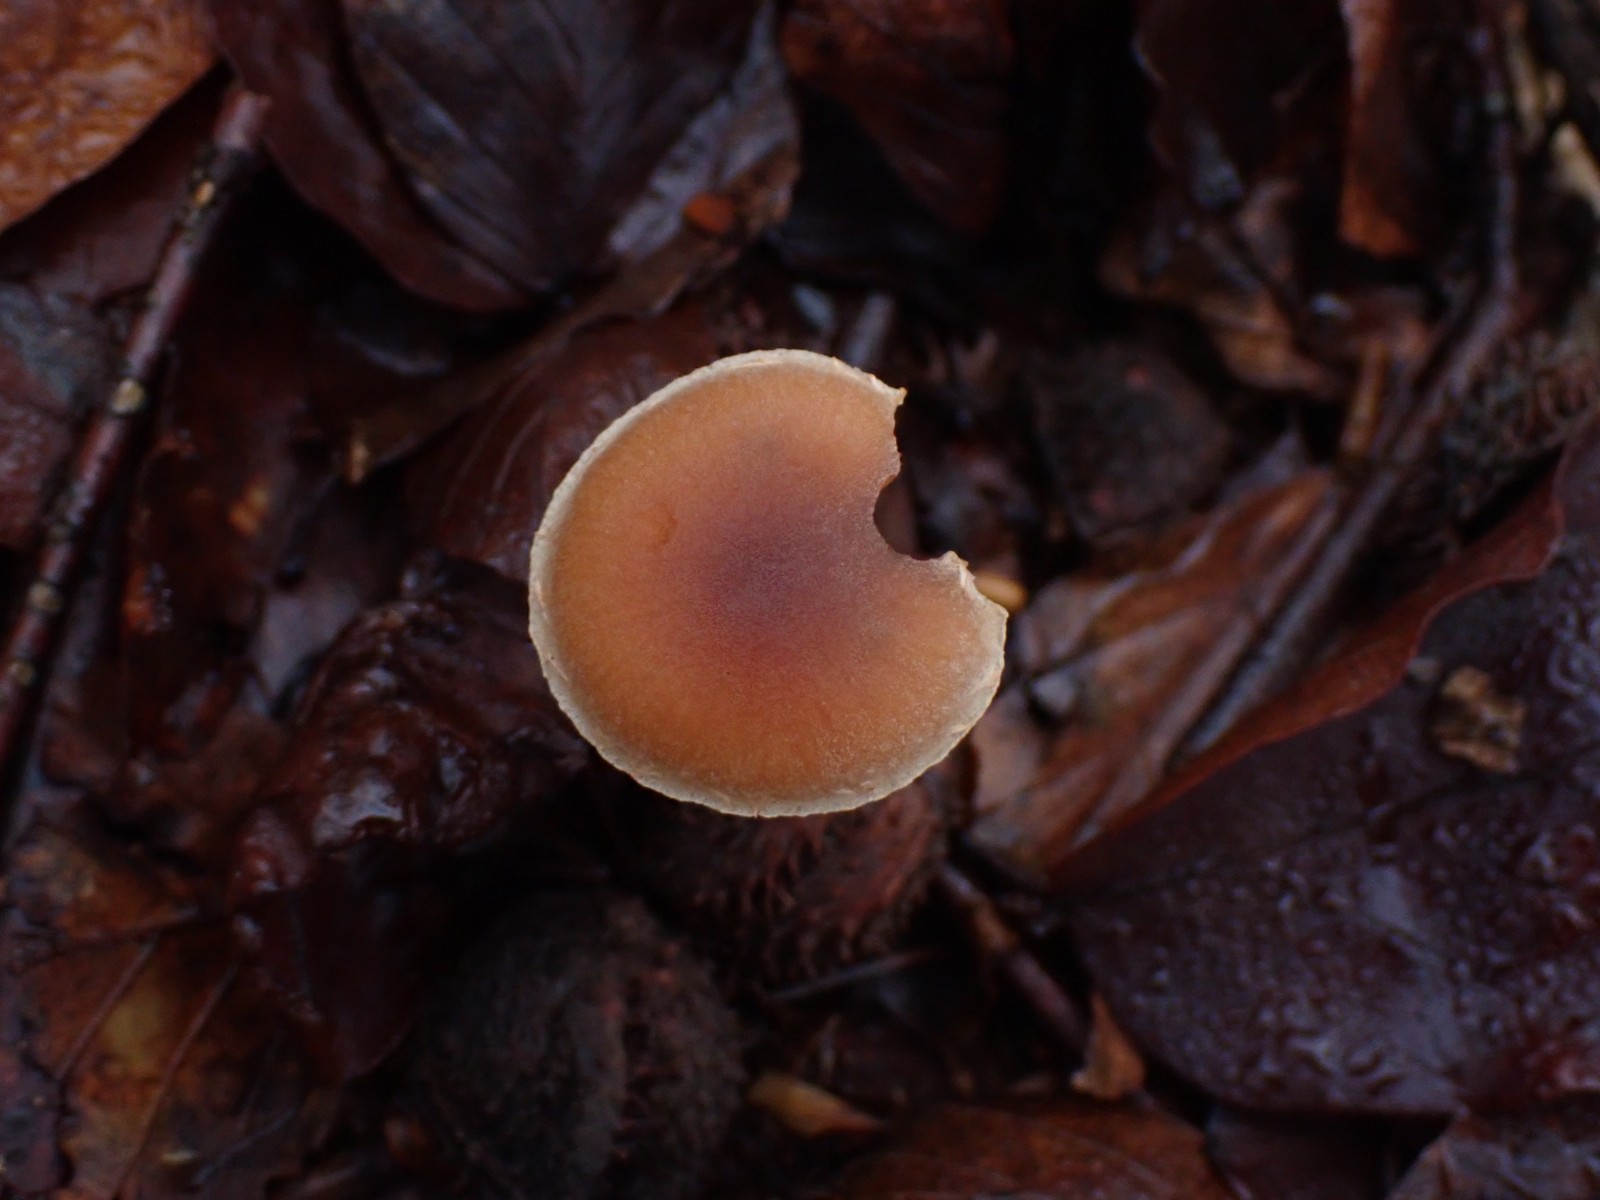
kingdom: Fungi
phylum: Basidiomycota
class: Agaricomycetes
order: Agaricales
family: Tubariaceae
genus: Tubaria
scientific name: Tubaria furfuracea
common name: kliddet fnughat
